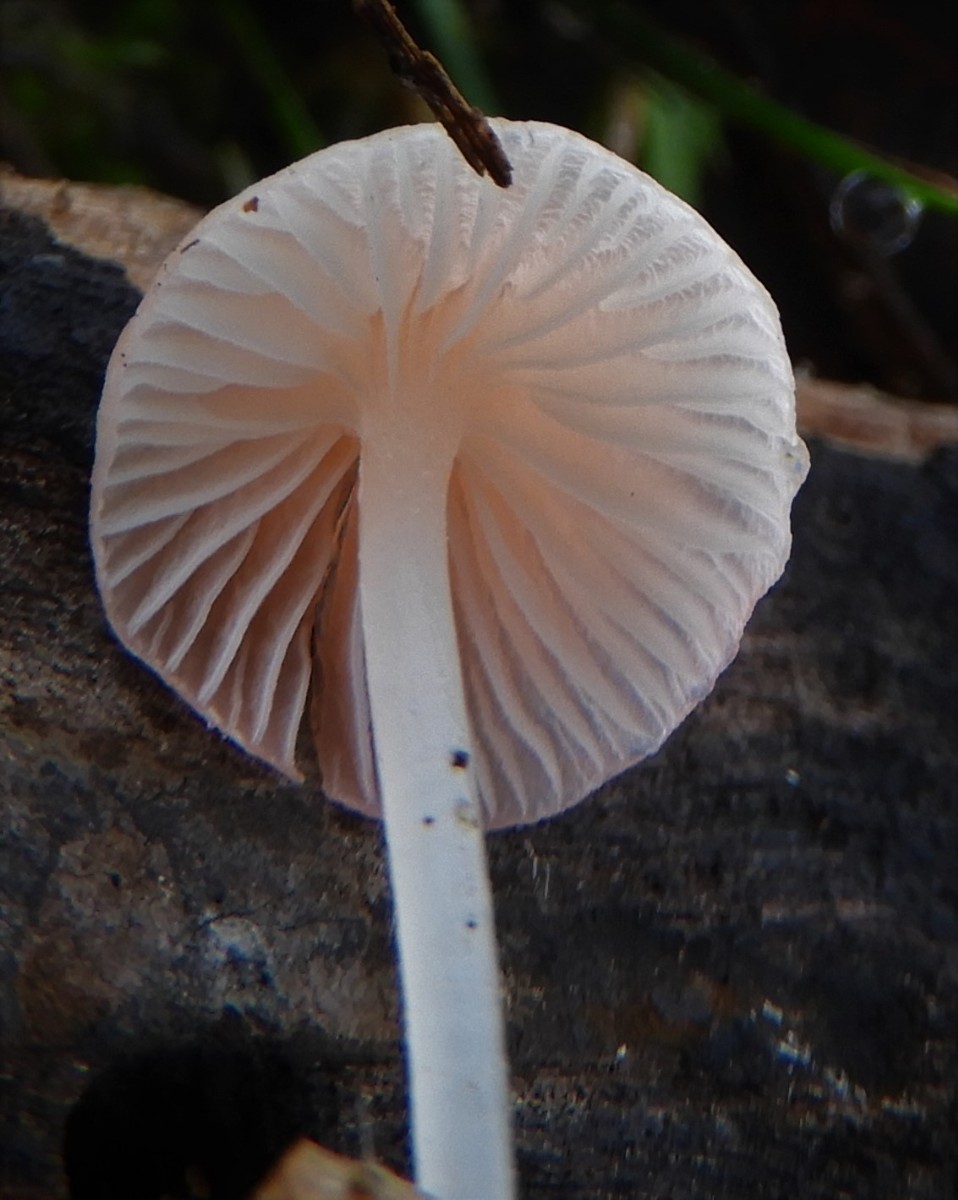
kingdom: Fungi
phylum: Basidiomycota
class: Agaricomycetes
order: Agaricales
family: Mycenaceae
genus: Atheniella
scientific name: Atheniella adonis
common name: rønnerød huesvamp
